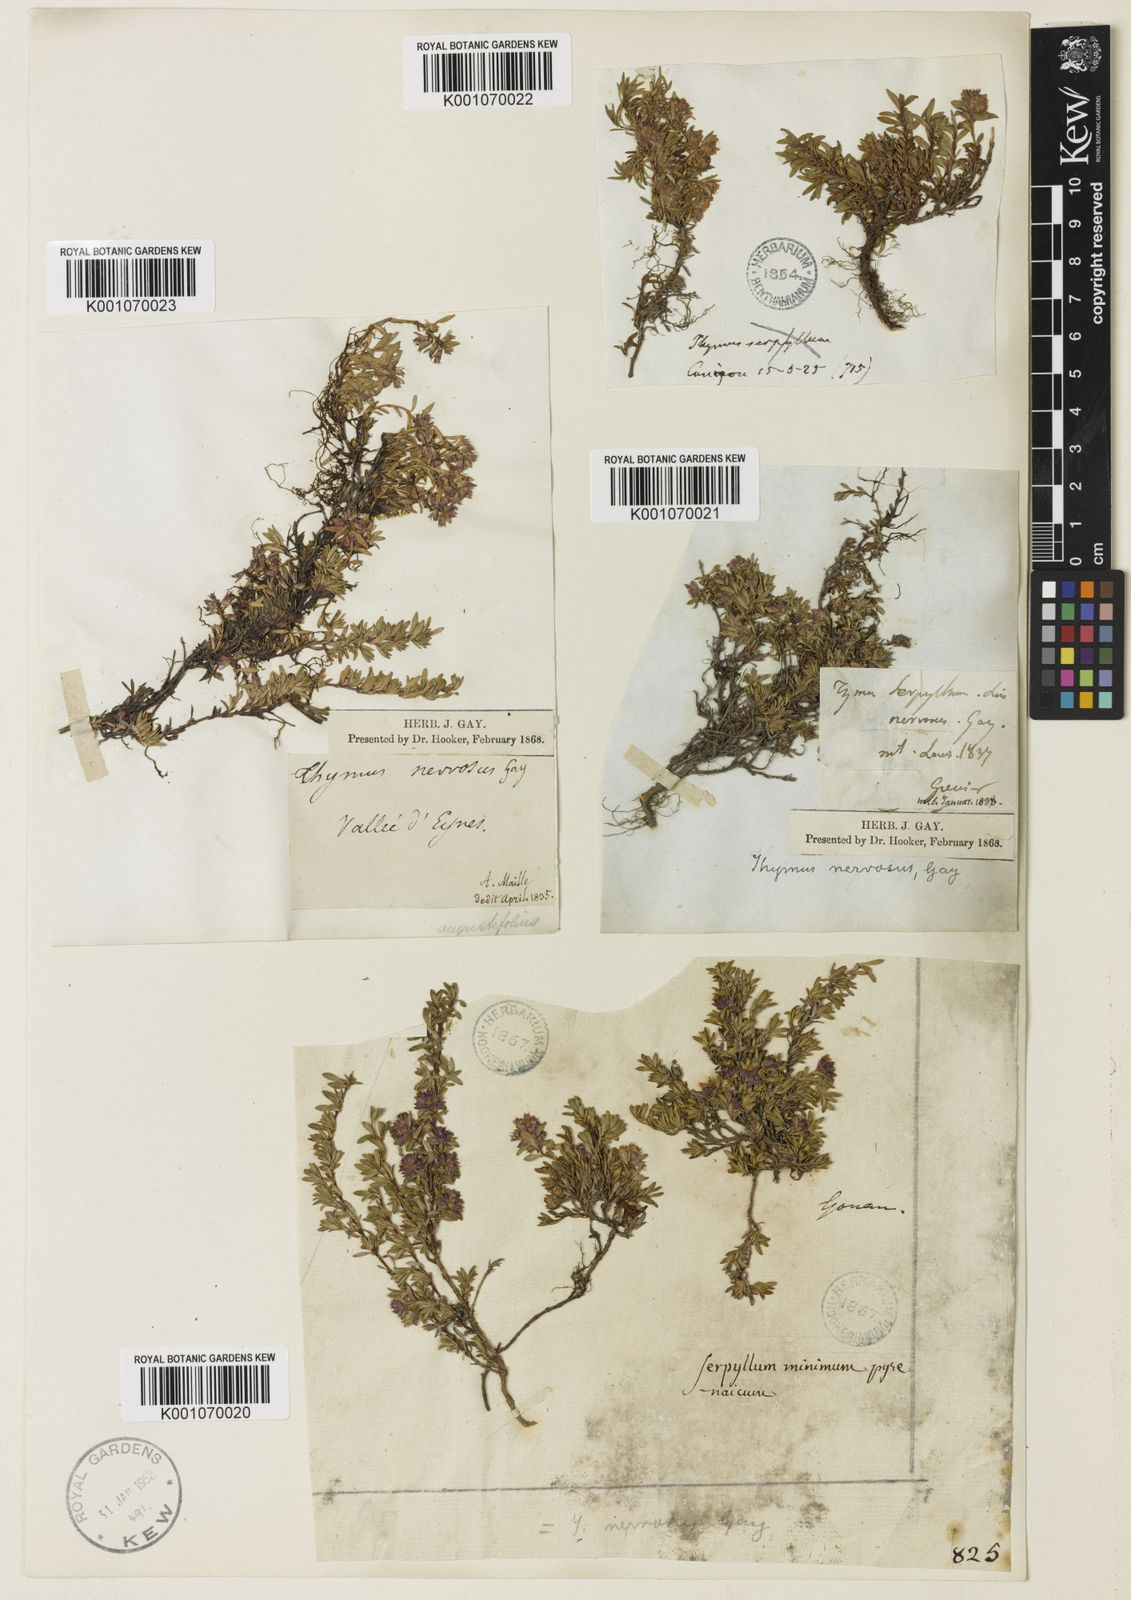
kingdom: Plantae
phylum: Tracheophyta
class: Magnoliopsida
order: Lamiales
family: Lamiaceae
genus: Thymus
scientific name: Thymus nervosus
